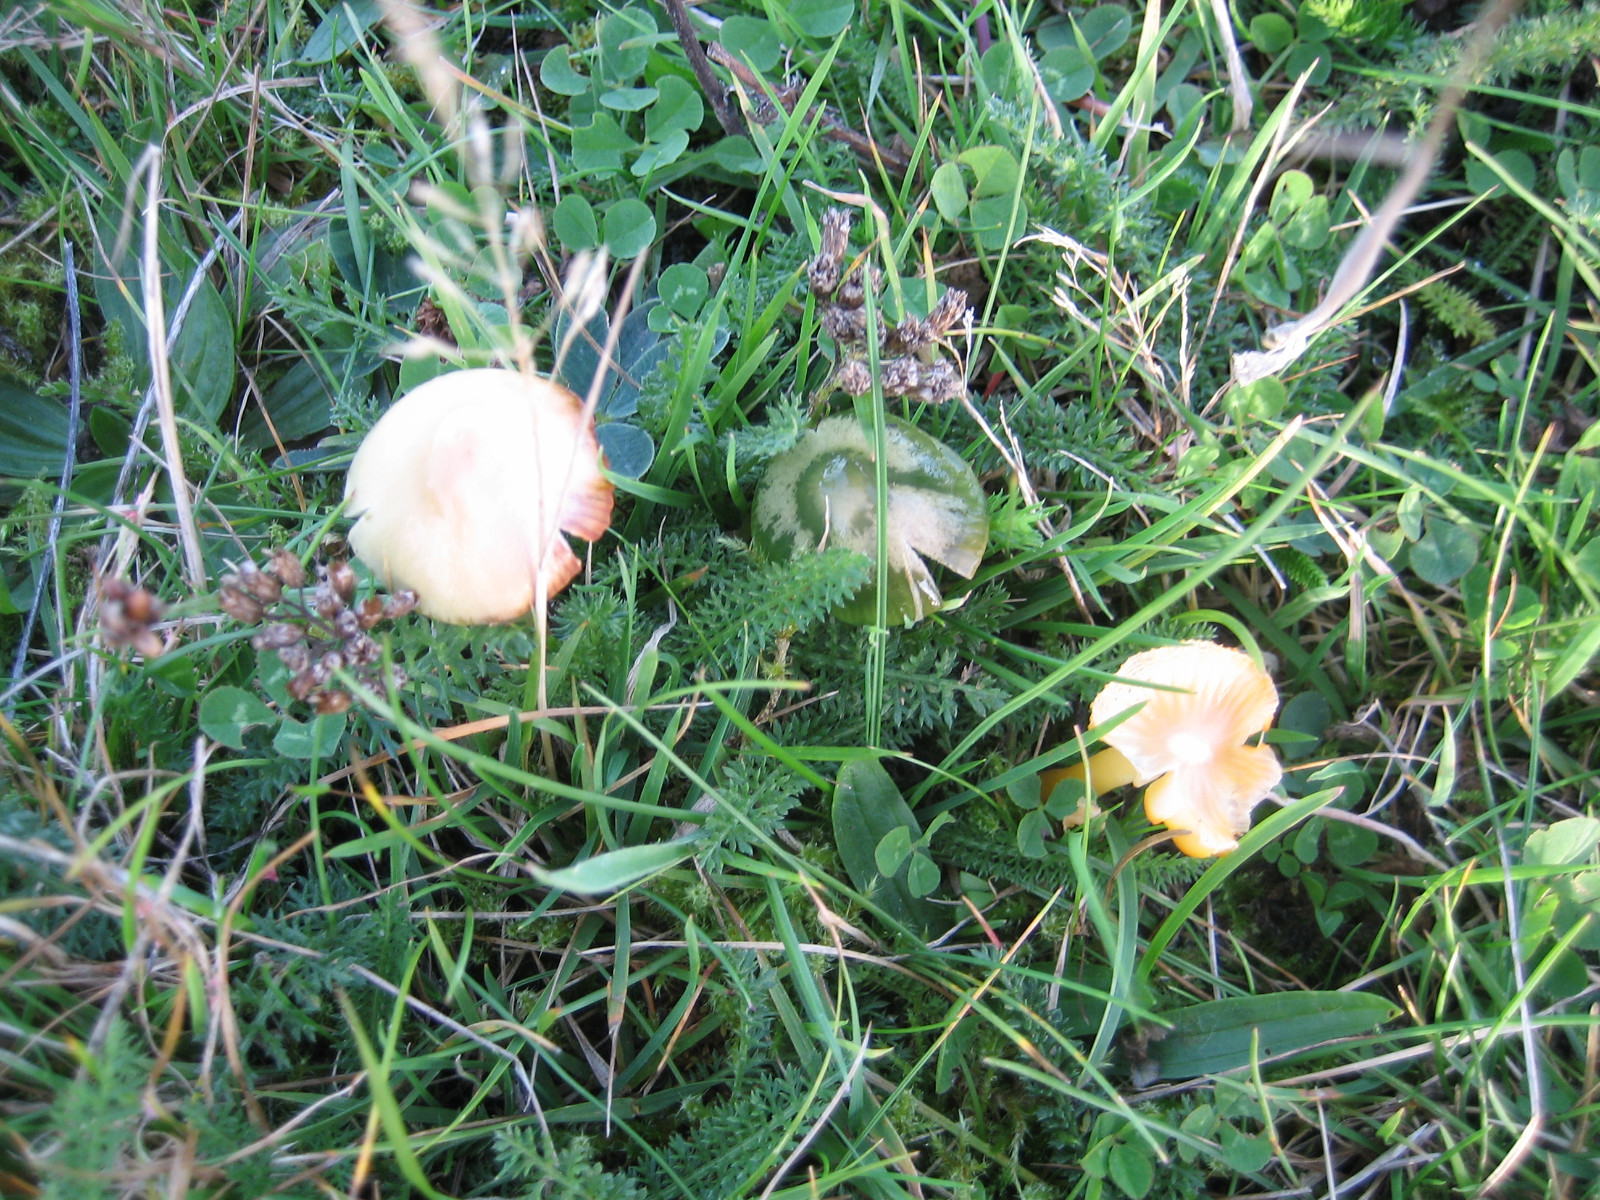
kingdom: Fungi
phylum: Basidiomycota
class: Agaricomycetes
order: Agaricales
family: Hygrophoraceae
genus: Gliophorus
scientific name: Gliophorus psittacinus
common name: papegøje-vokshat
